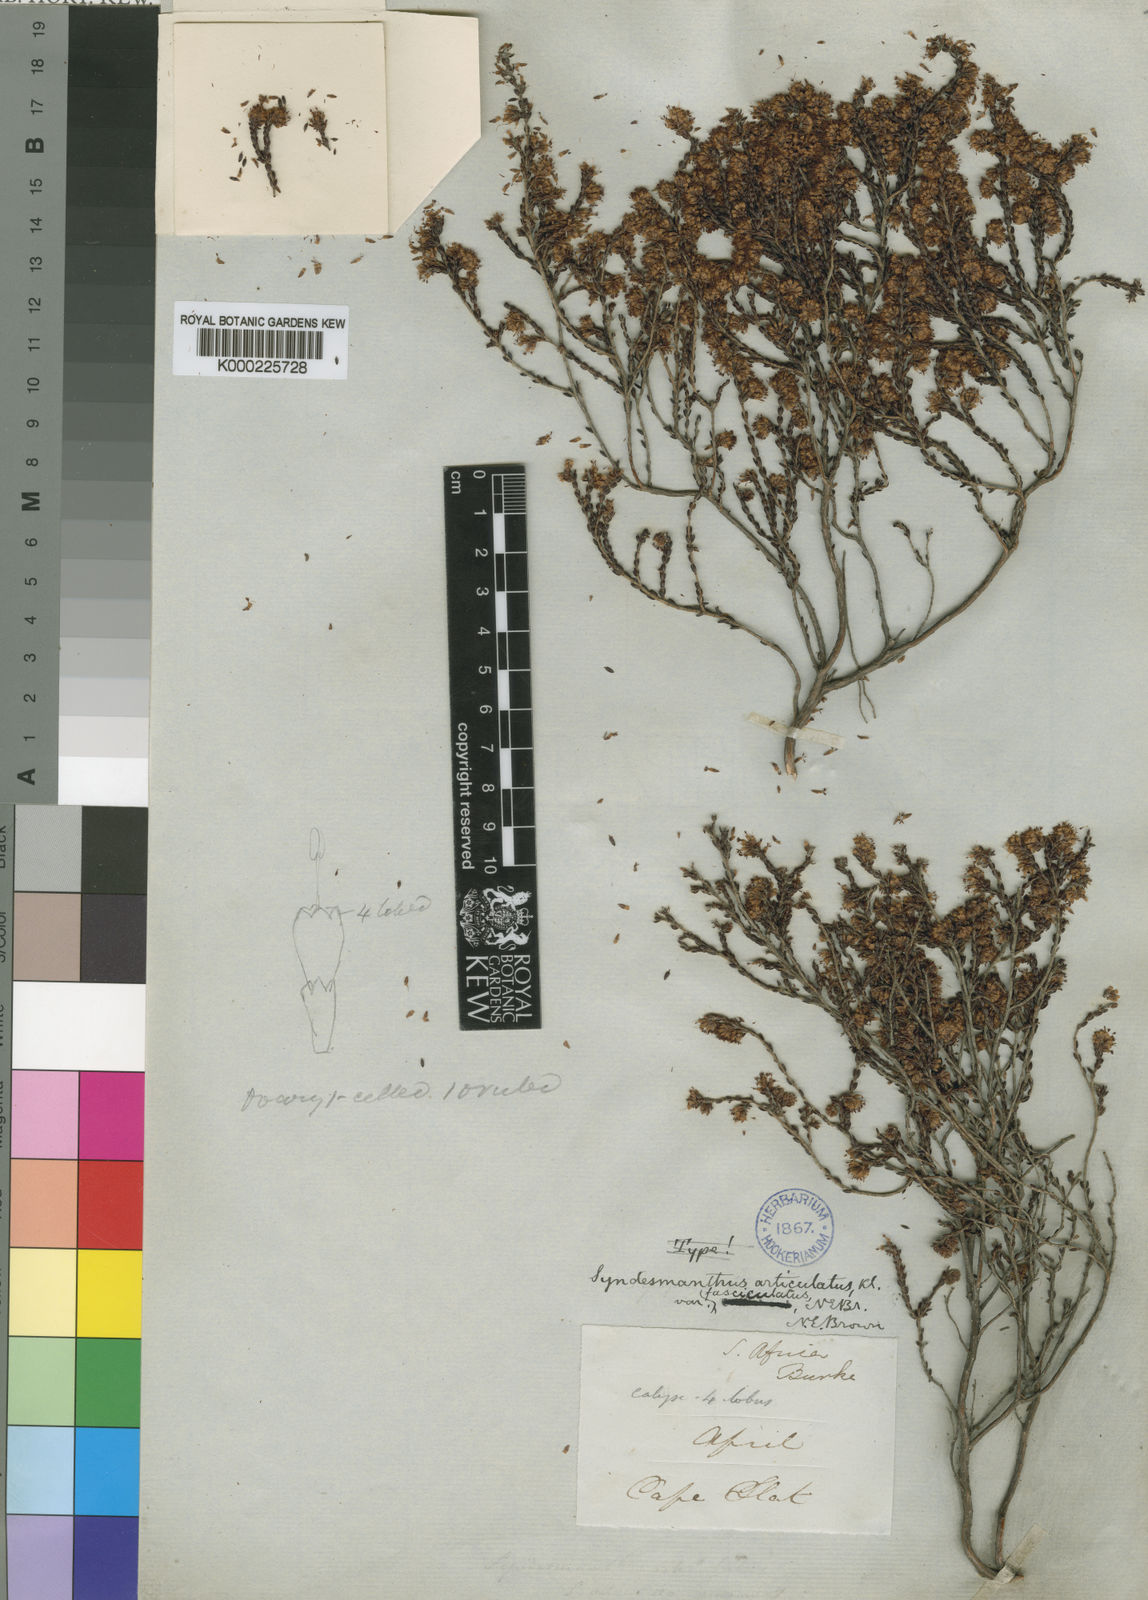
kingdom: Plantae
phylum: Tracheophyta
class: Magnoliopsida
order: Ericales
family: Ericaceae
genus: Erica
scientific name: Erica similis
